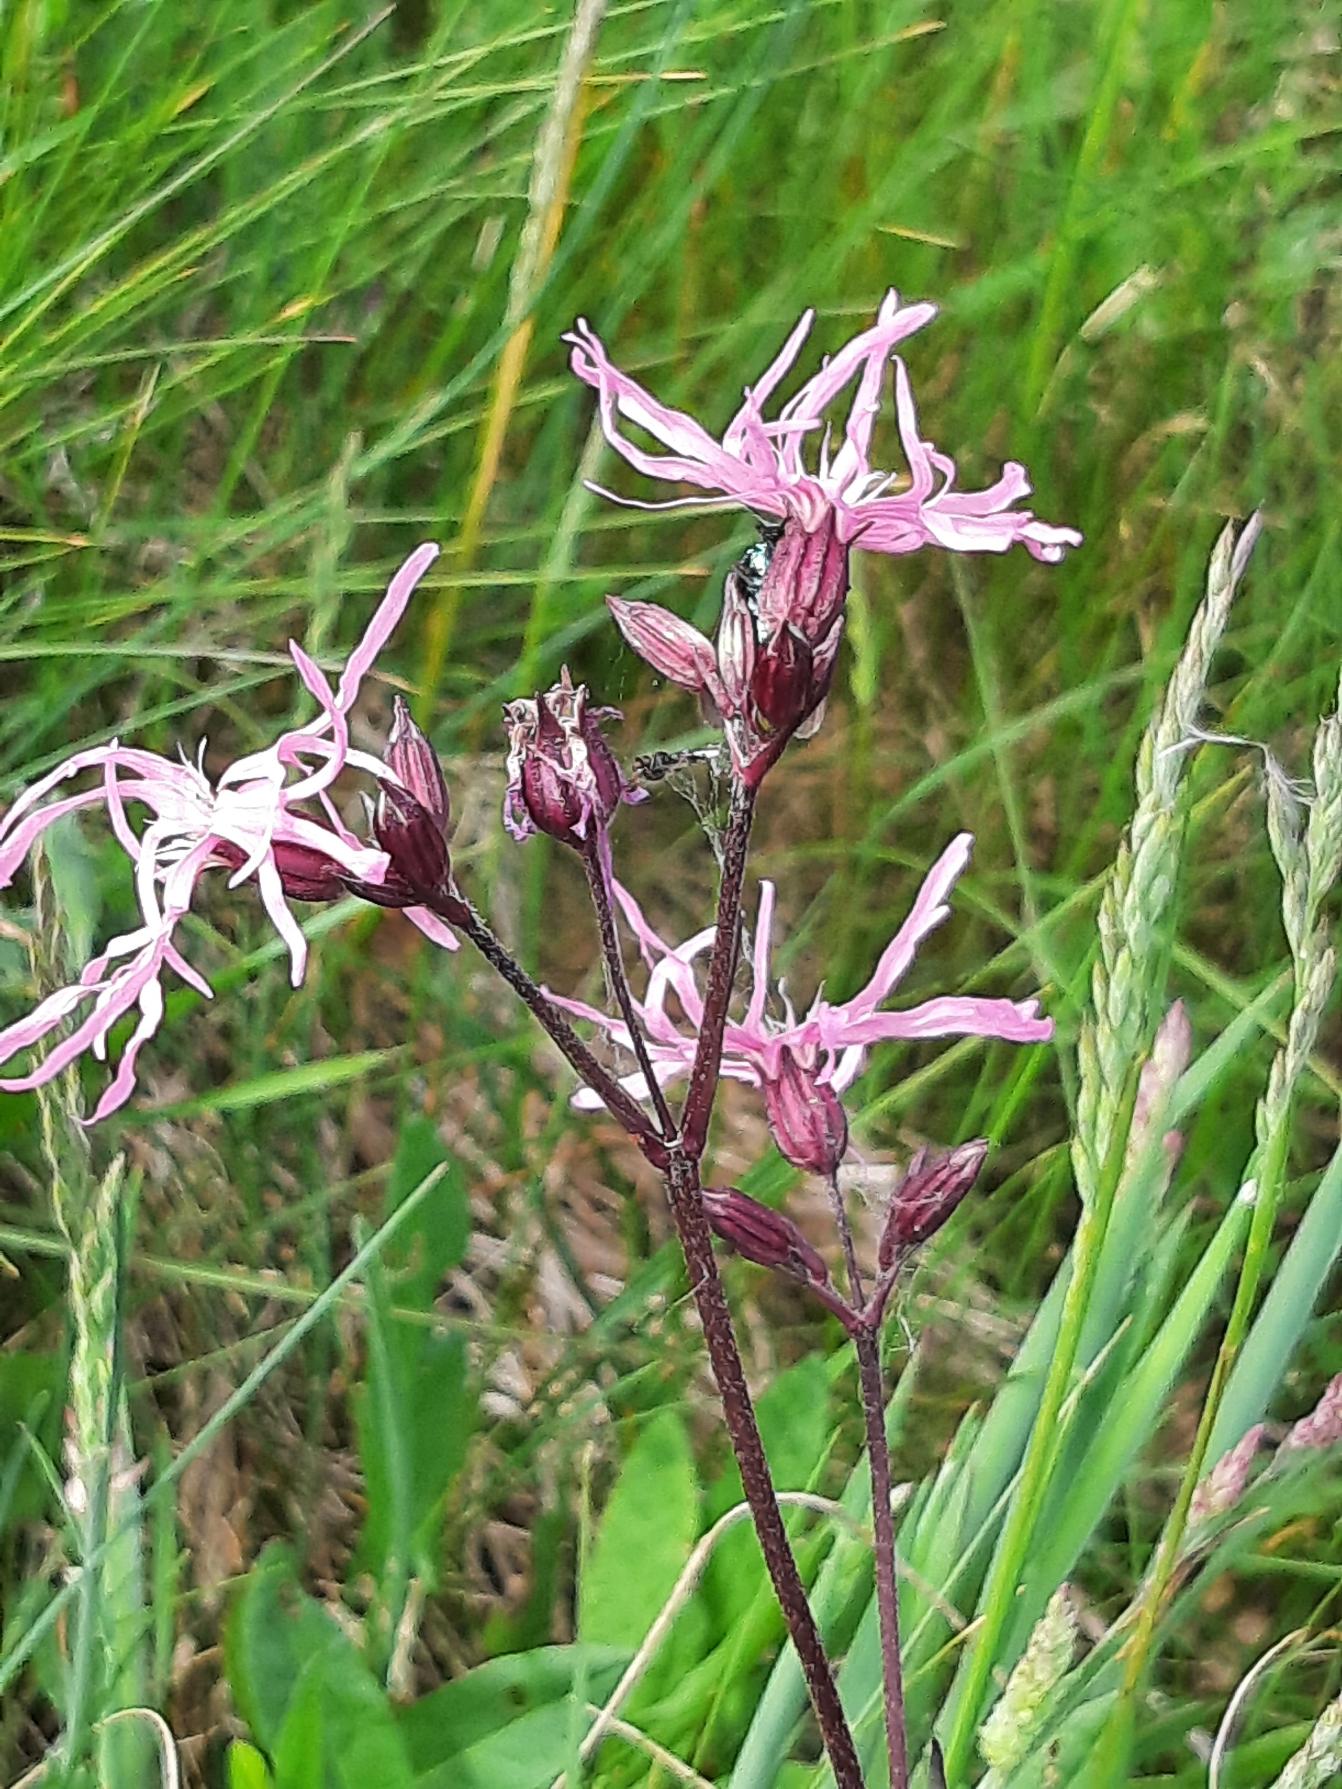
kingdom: Plantae
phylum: Tracheophyta
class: Magnoliopsida
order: Caryophyllales
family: Caryophyllaceae
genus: Silene
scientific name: Silene flos-cuculi
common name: Trævlekrone
